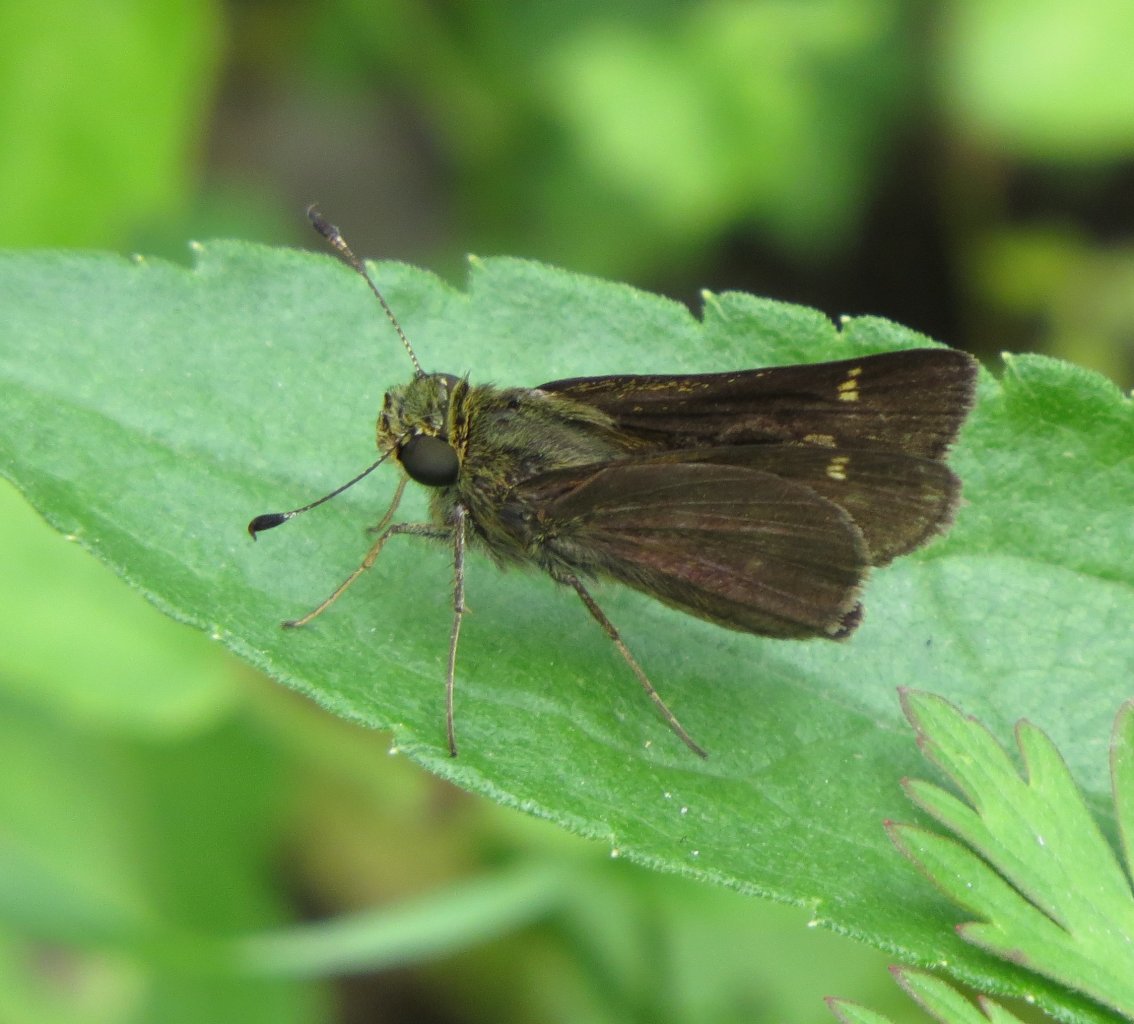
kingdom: Animalia
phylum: Arthropoda
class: Insecta
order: Lepidoptera
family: Hesperiidae
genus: Vernia
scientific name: Vernia verna
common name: Little Glassywing
